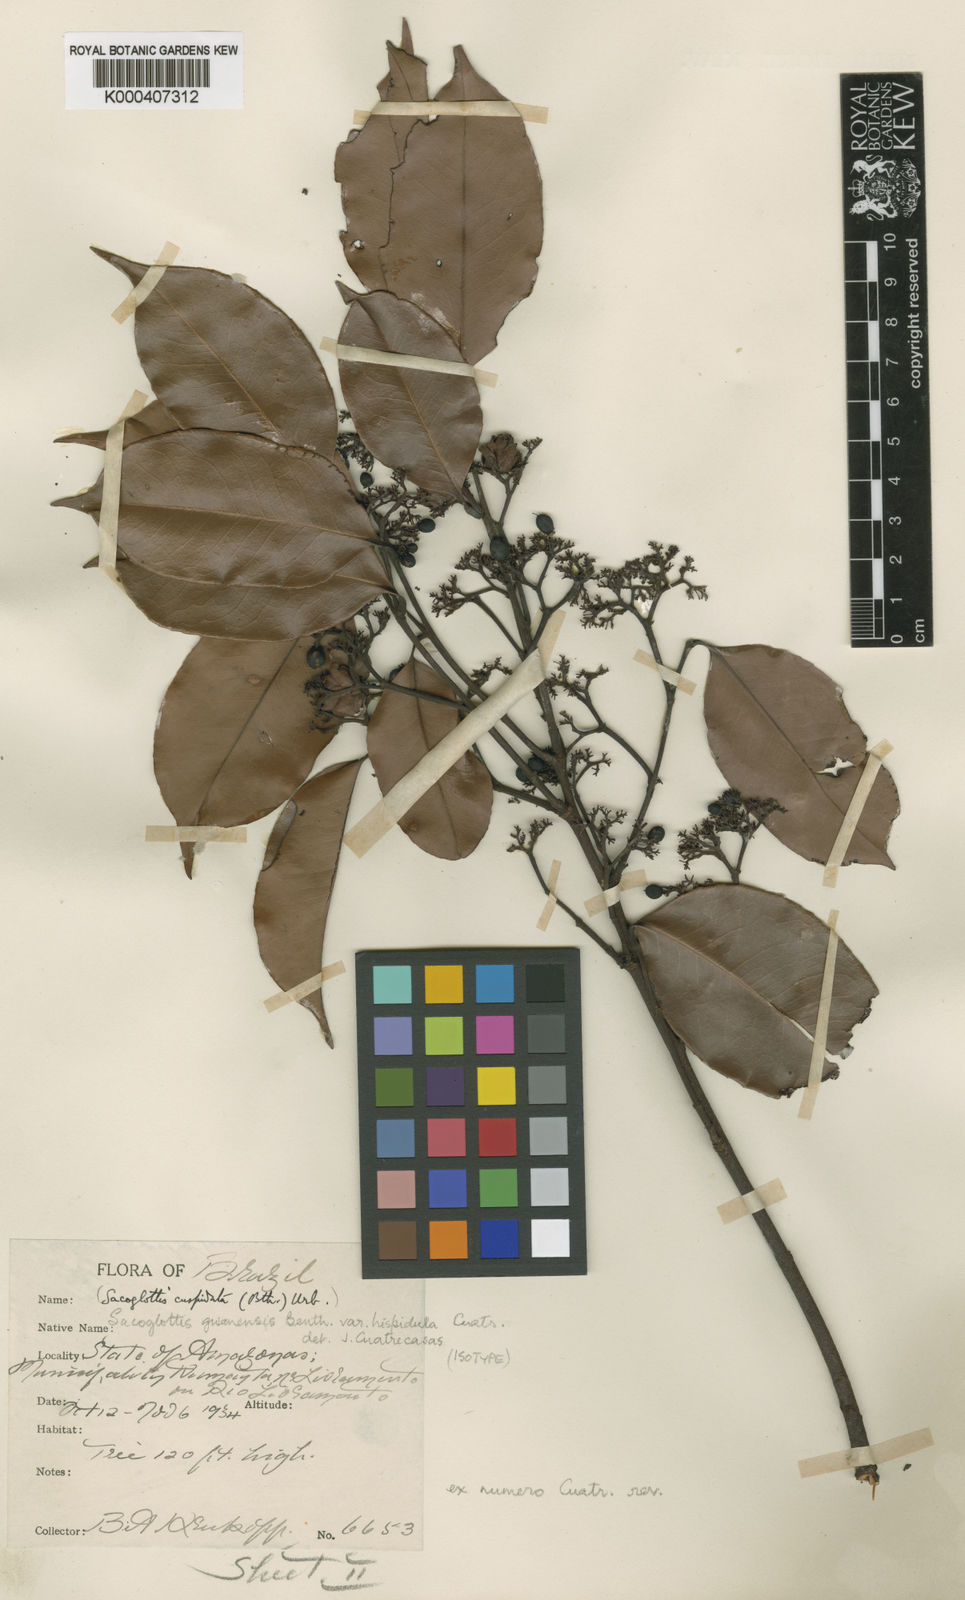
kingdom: Plantae
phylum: Tracheophyta
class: Magnoliopsida
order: Malpighiales
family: Humiriaceae
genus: Sacoglottis
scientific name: Sacoglottis guianensis
